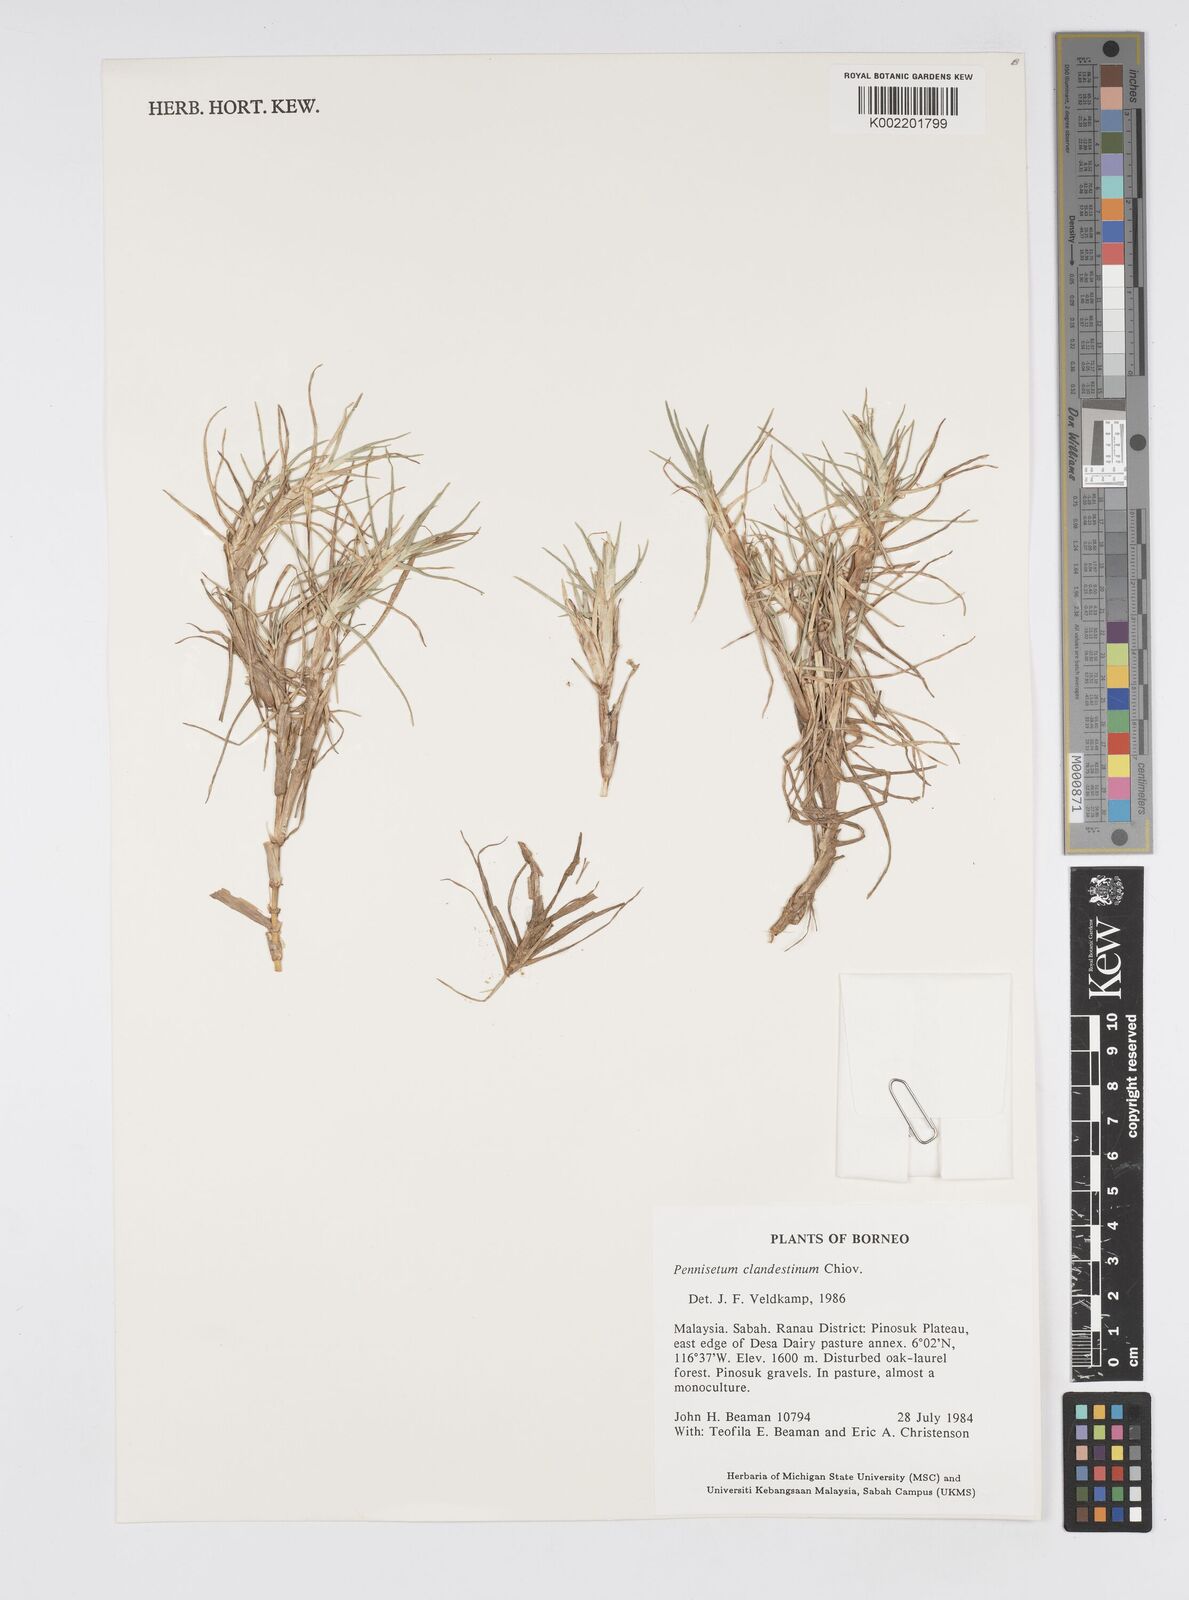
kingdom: Plantae
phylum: Tracheophyta
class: Liliopsida
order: Poales
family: Poaceae
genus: Cenchrus
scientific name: Cenchrus clandestinus
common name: Kikuyugrass
